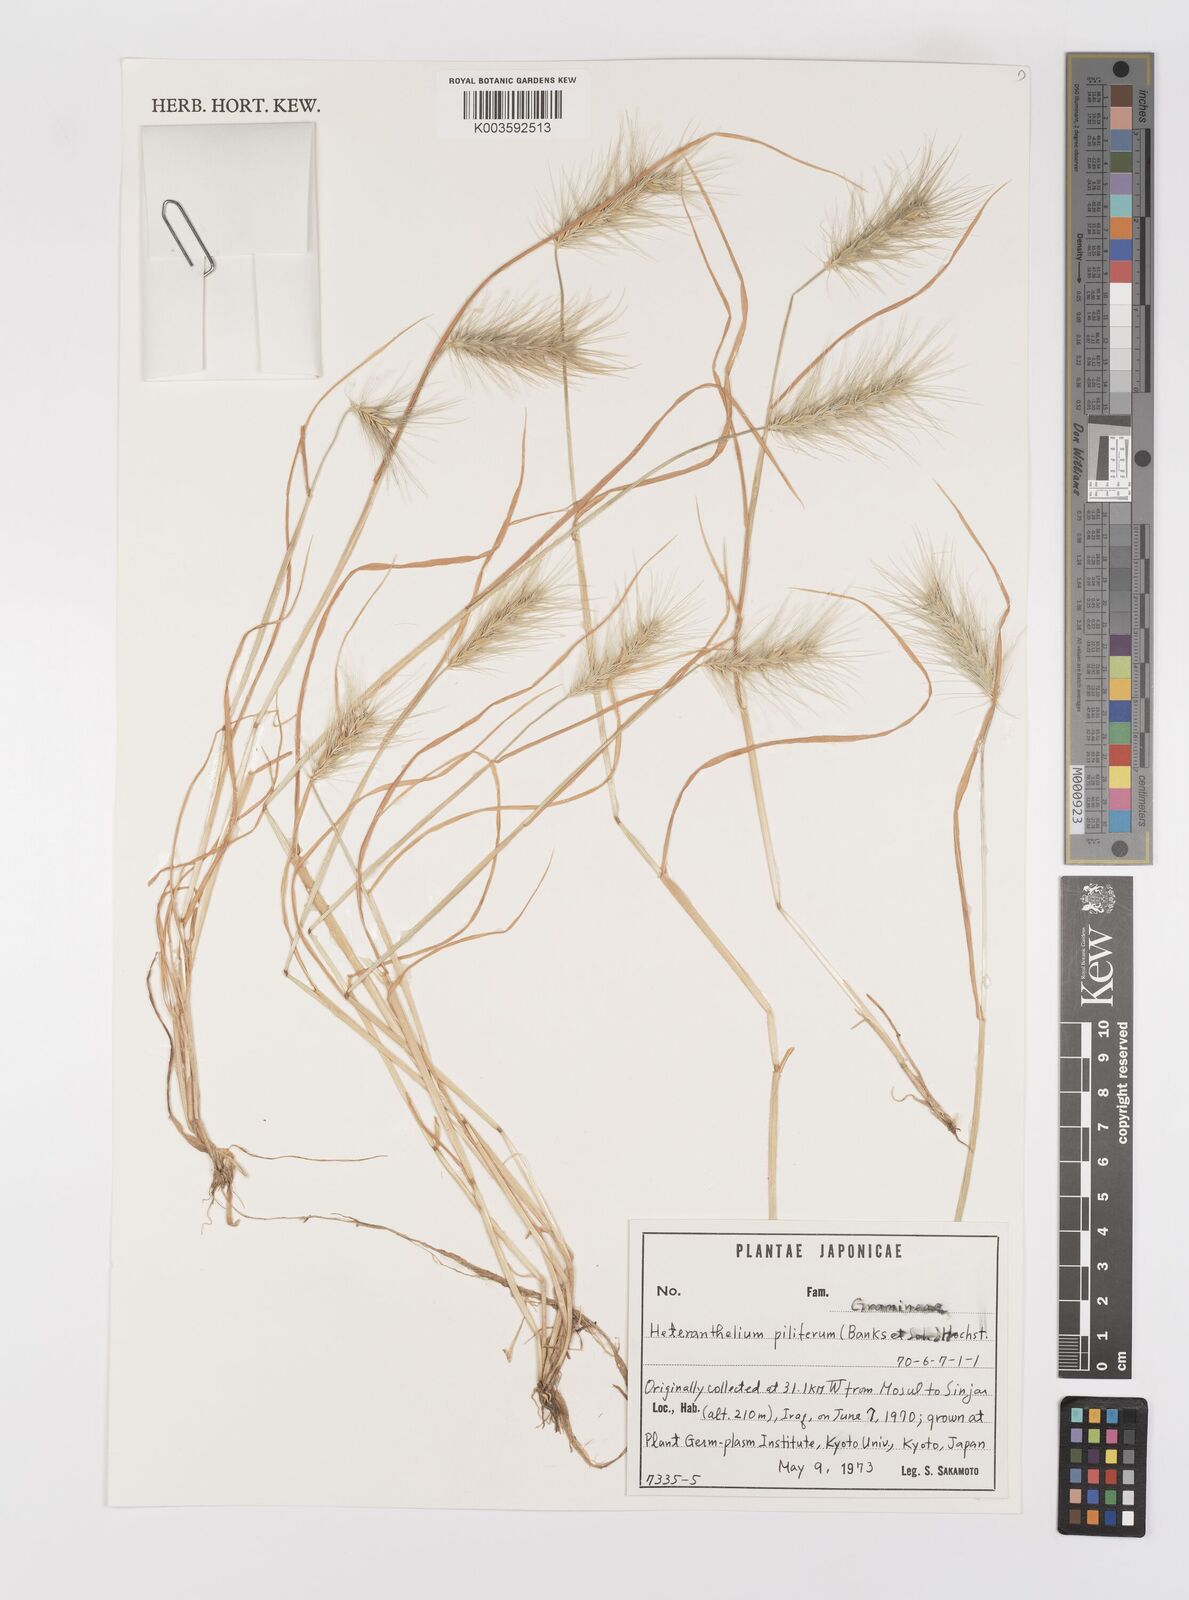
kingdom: Plantae
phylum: Tracheophyta
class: Liliopsida
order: Poales
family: Poaceae
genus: Heteranthelium
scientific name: Heteranthelium piliferum
